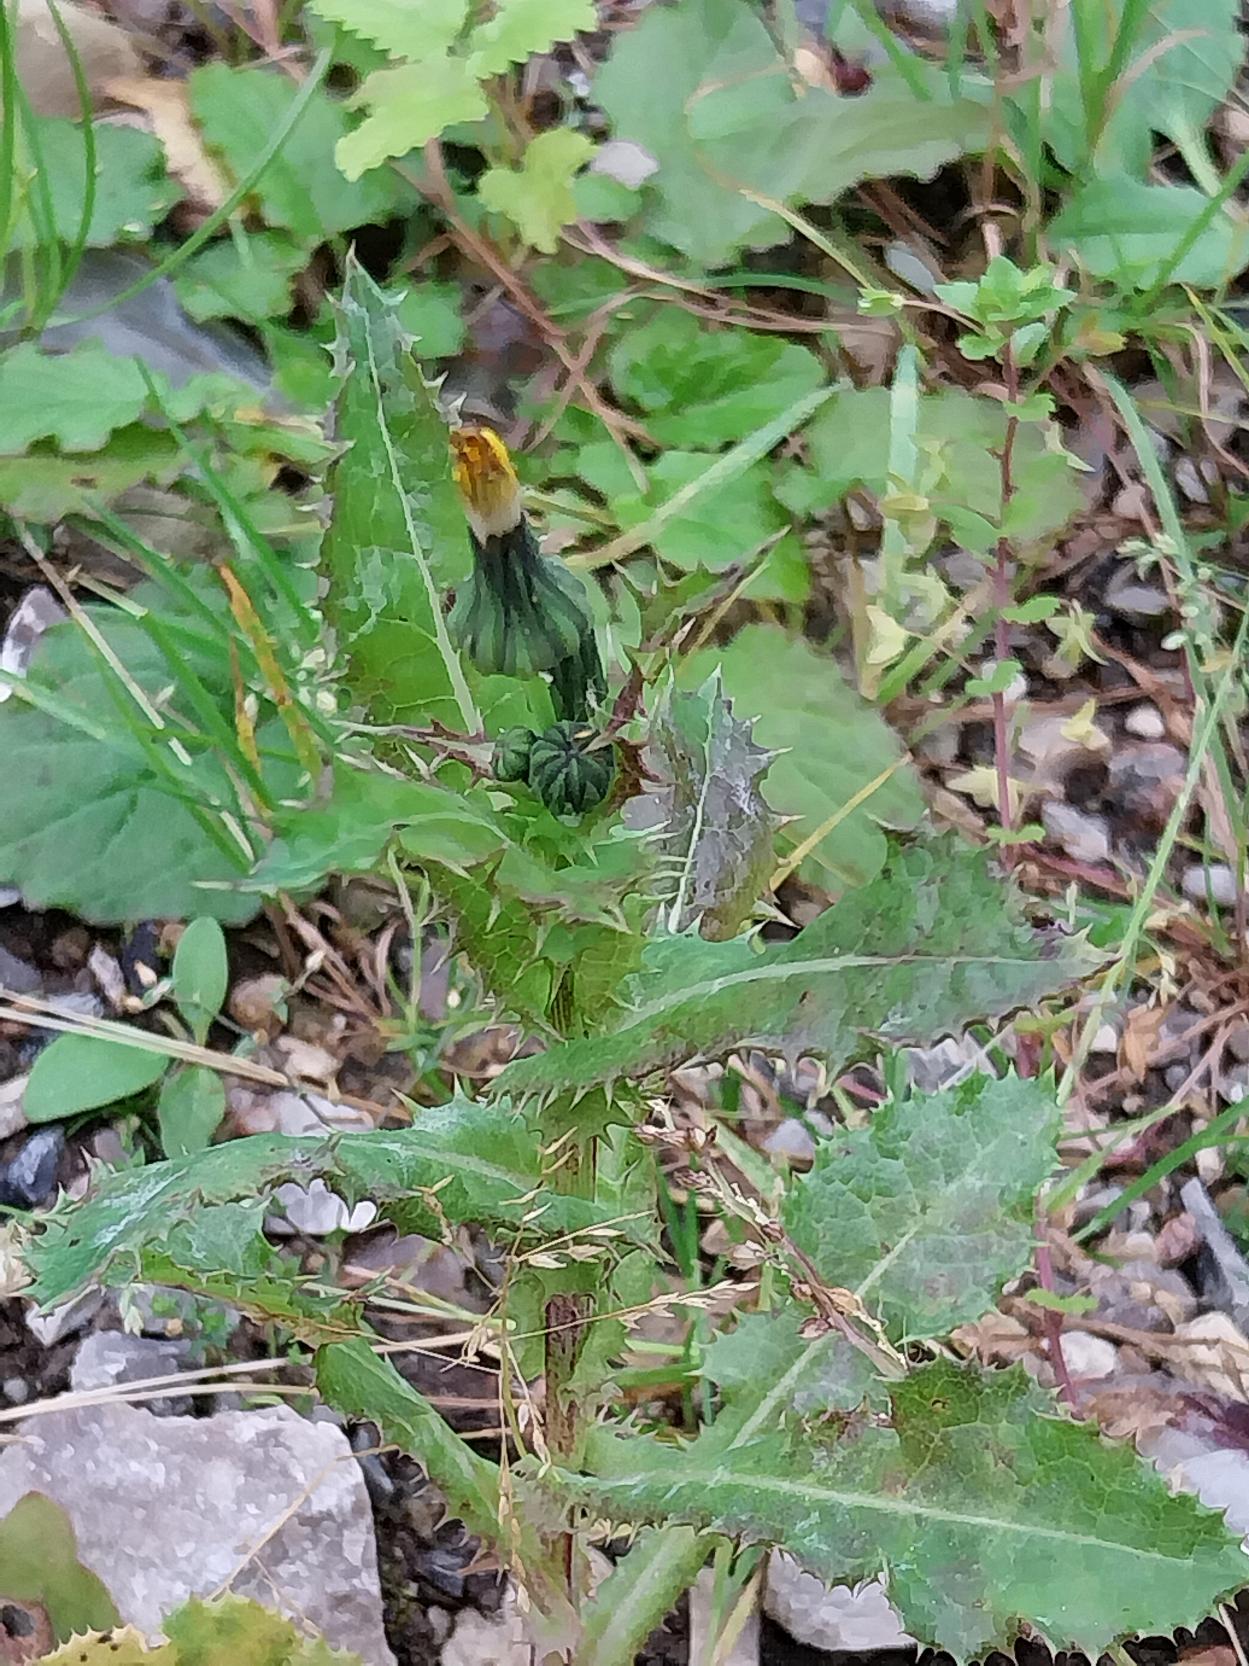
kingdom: Plantae
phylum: Tracheophyta
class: Magnoliopsida
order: Asterales
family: Asteraceae
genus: Sonchus
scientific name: Sonchus asper
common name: Ru svinemælk
